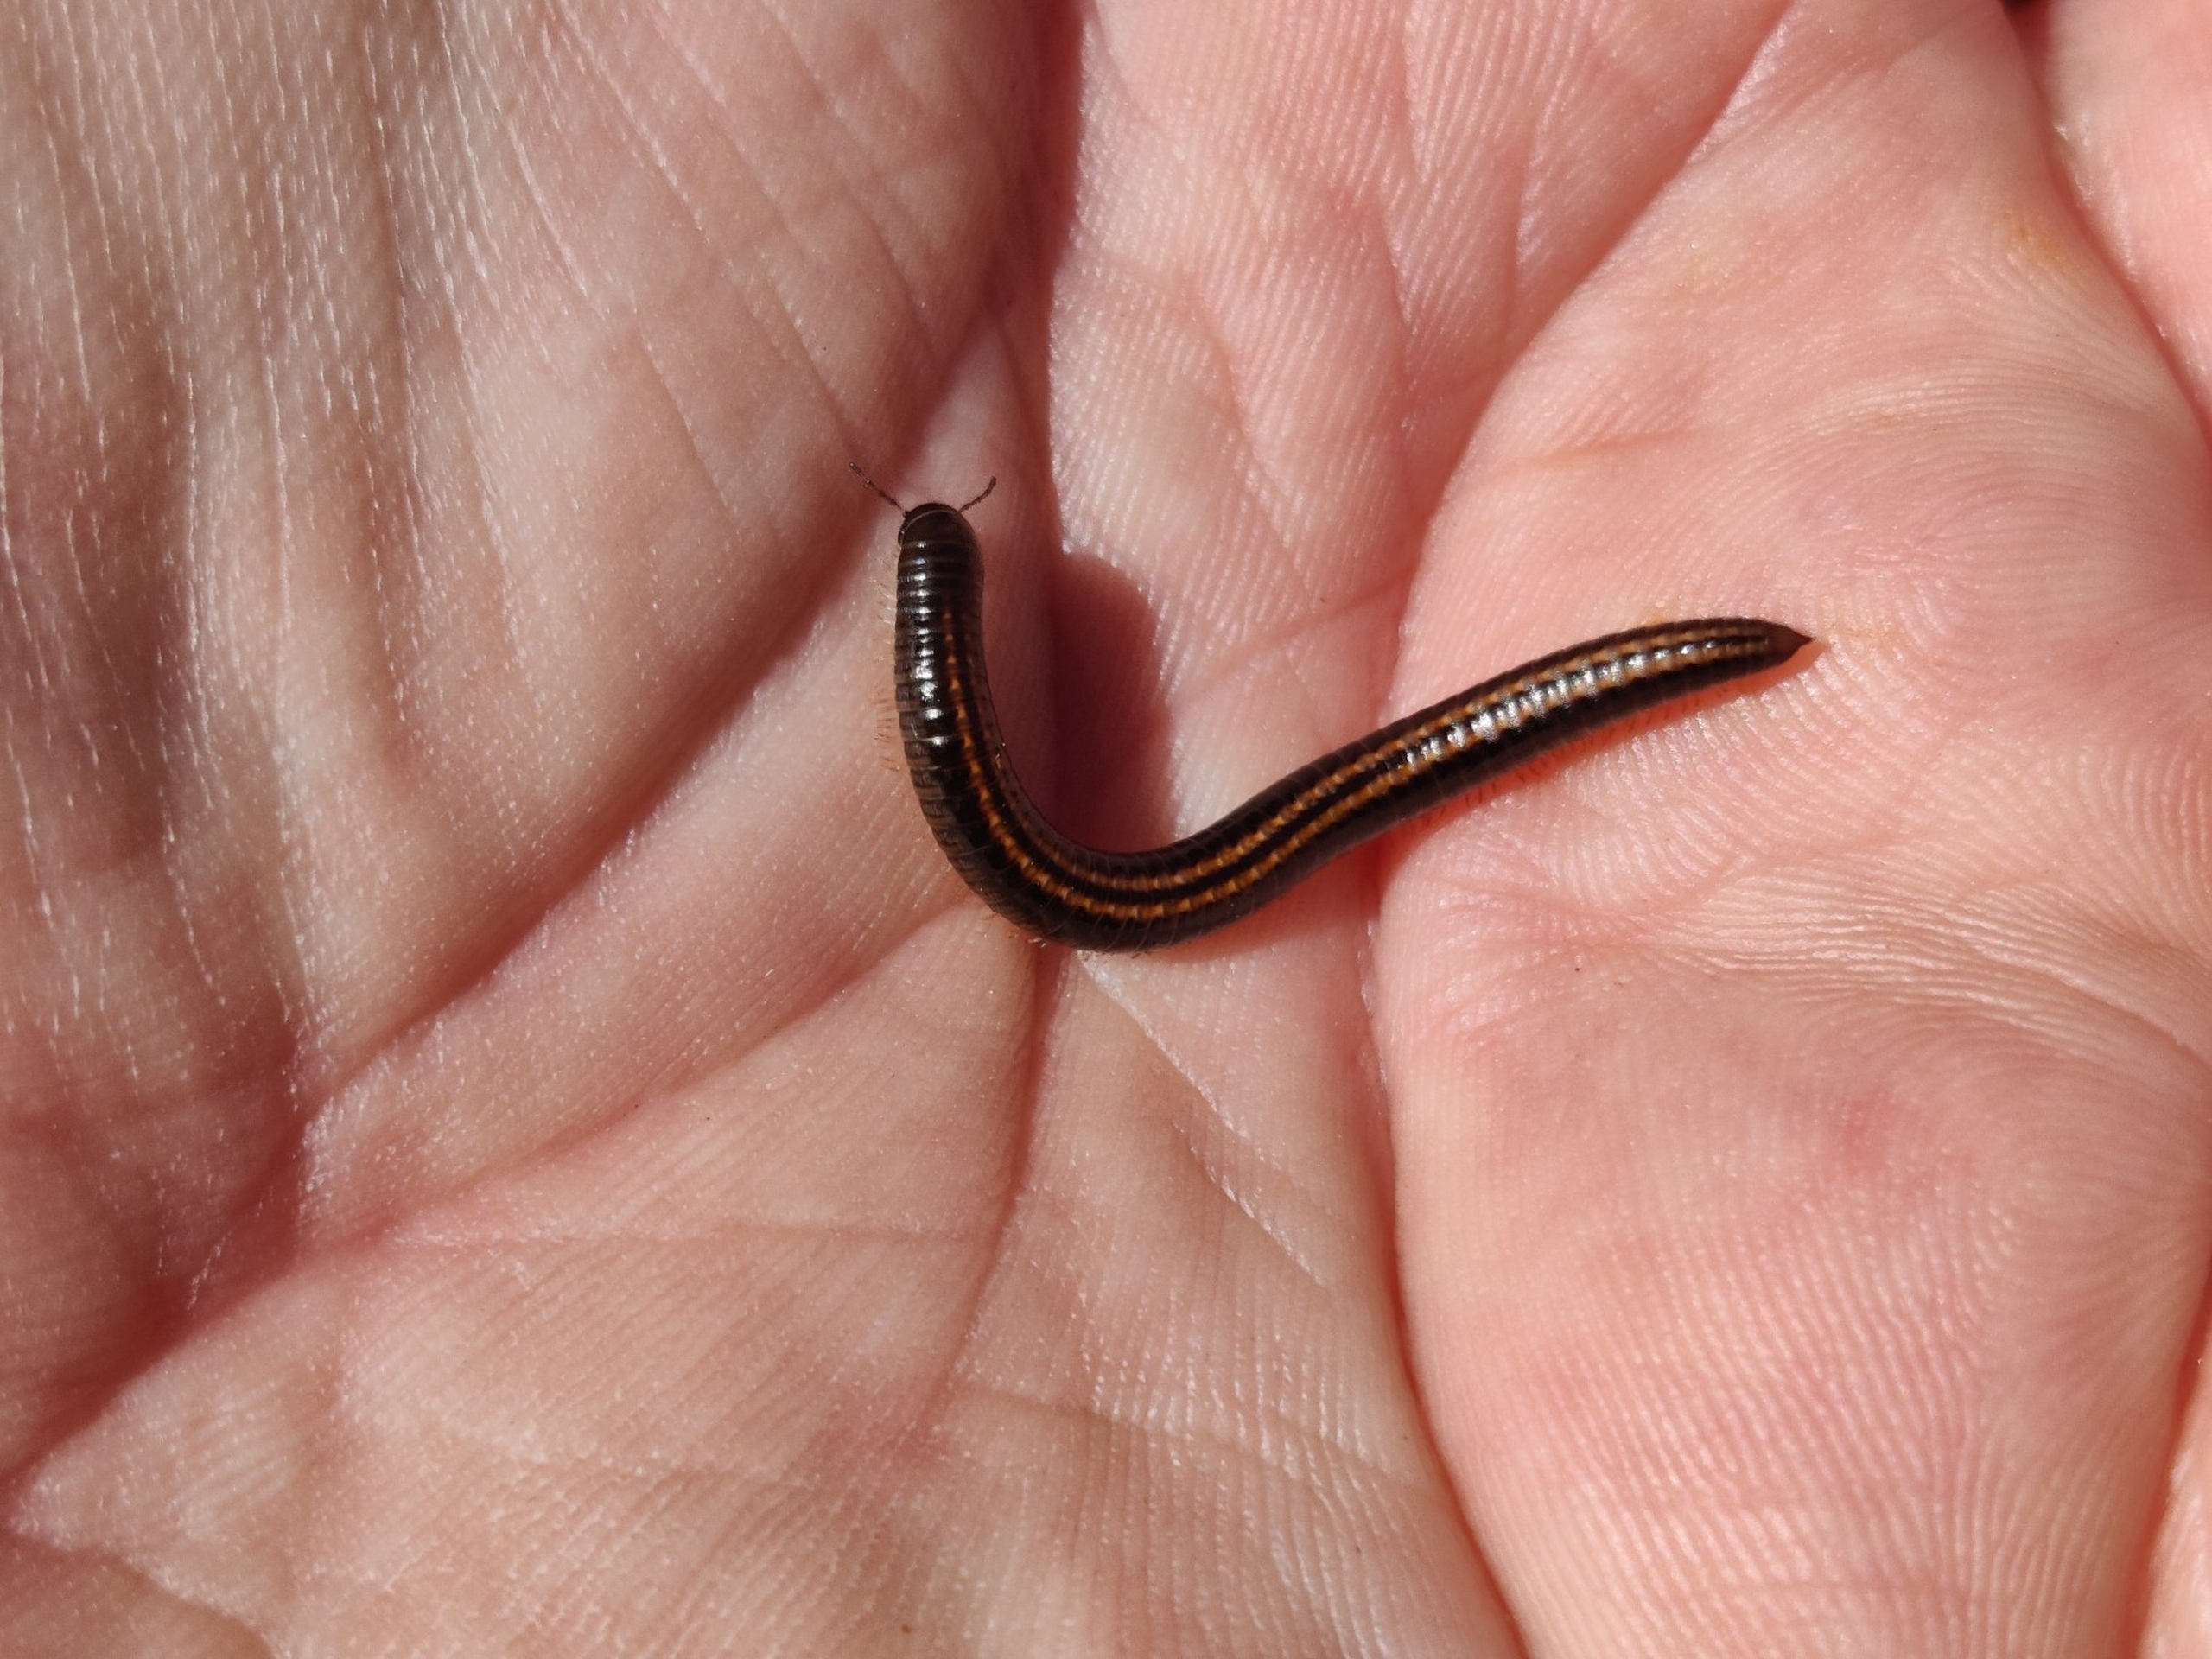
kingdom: Animalia
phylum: Arthropoda
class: Diplopoda
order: Julida
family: Julidae
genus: Ommatoiulus
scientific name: Ommatoiulus sabulosus
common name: Stor bånd-tusindben
